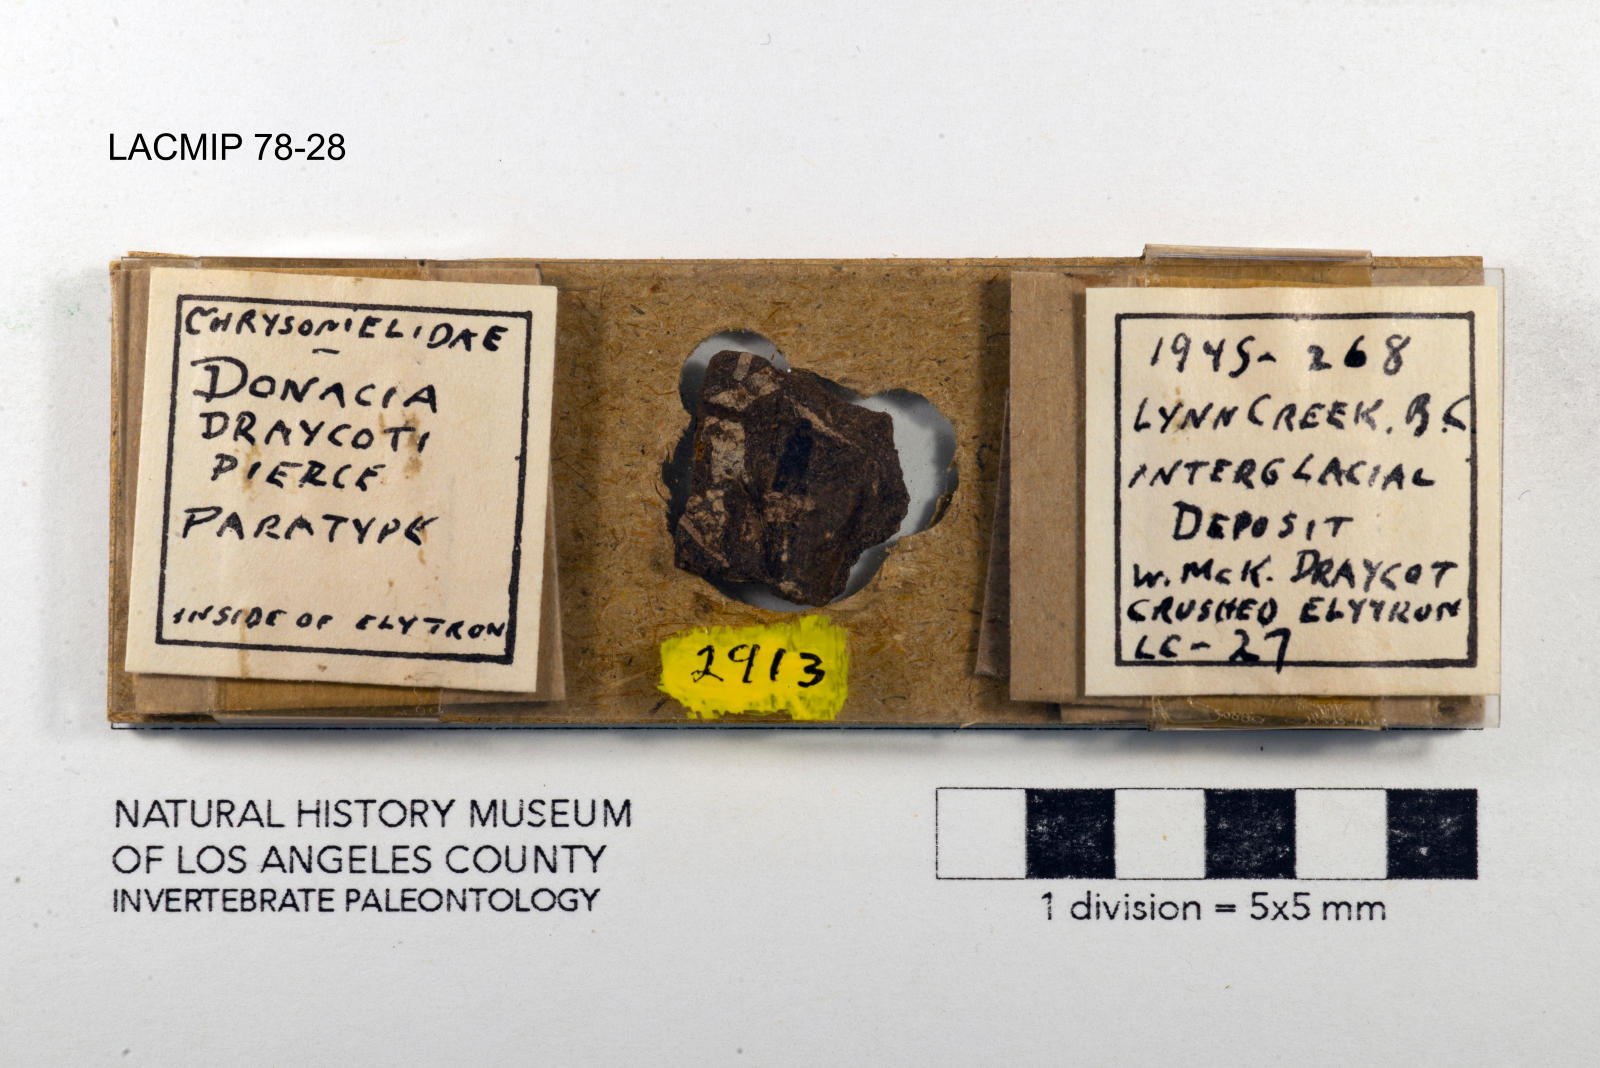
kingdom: Animalia
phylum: Arthropoda
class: Insecta
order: Coleoptera
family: Chrysomelidae
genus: Donacia
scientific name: Donacia draycoti
